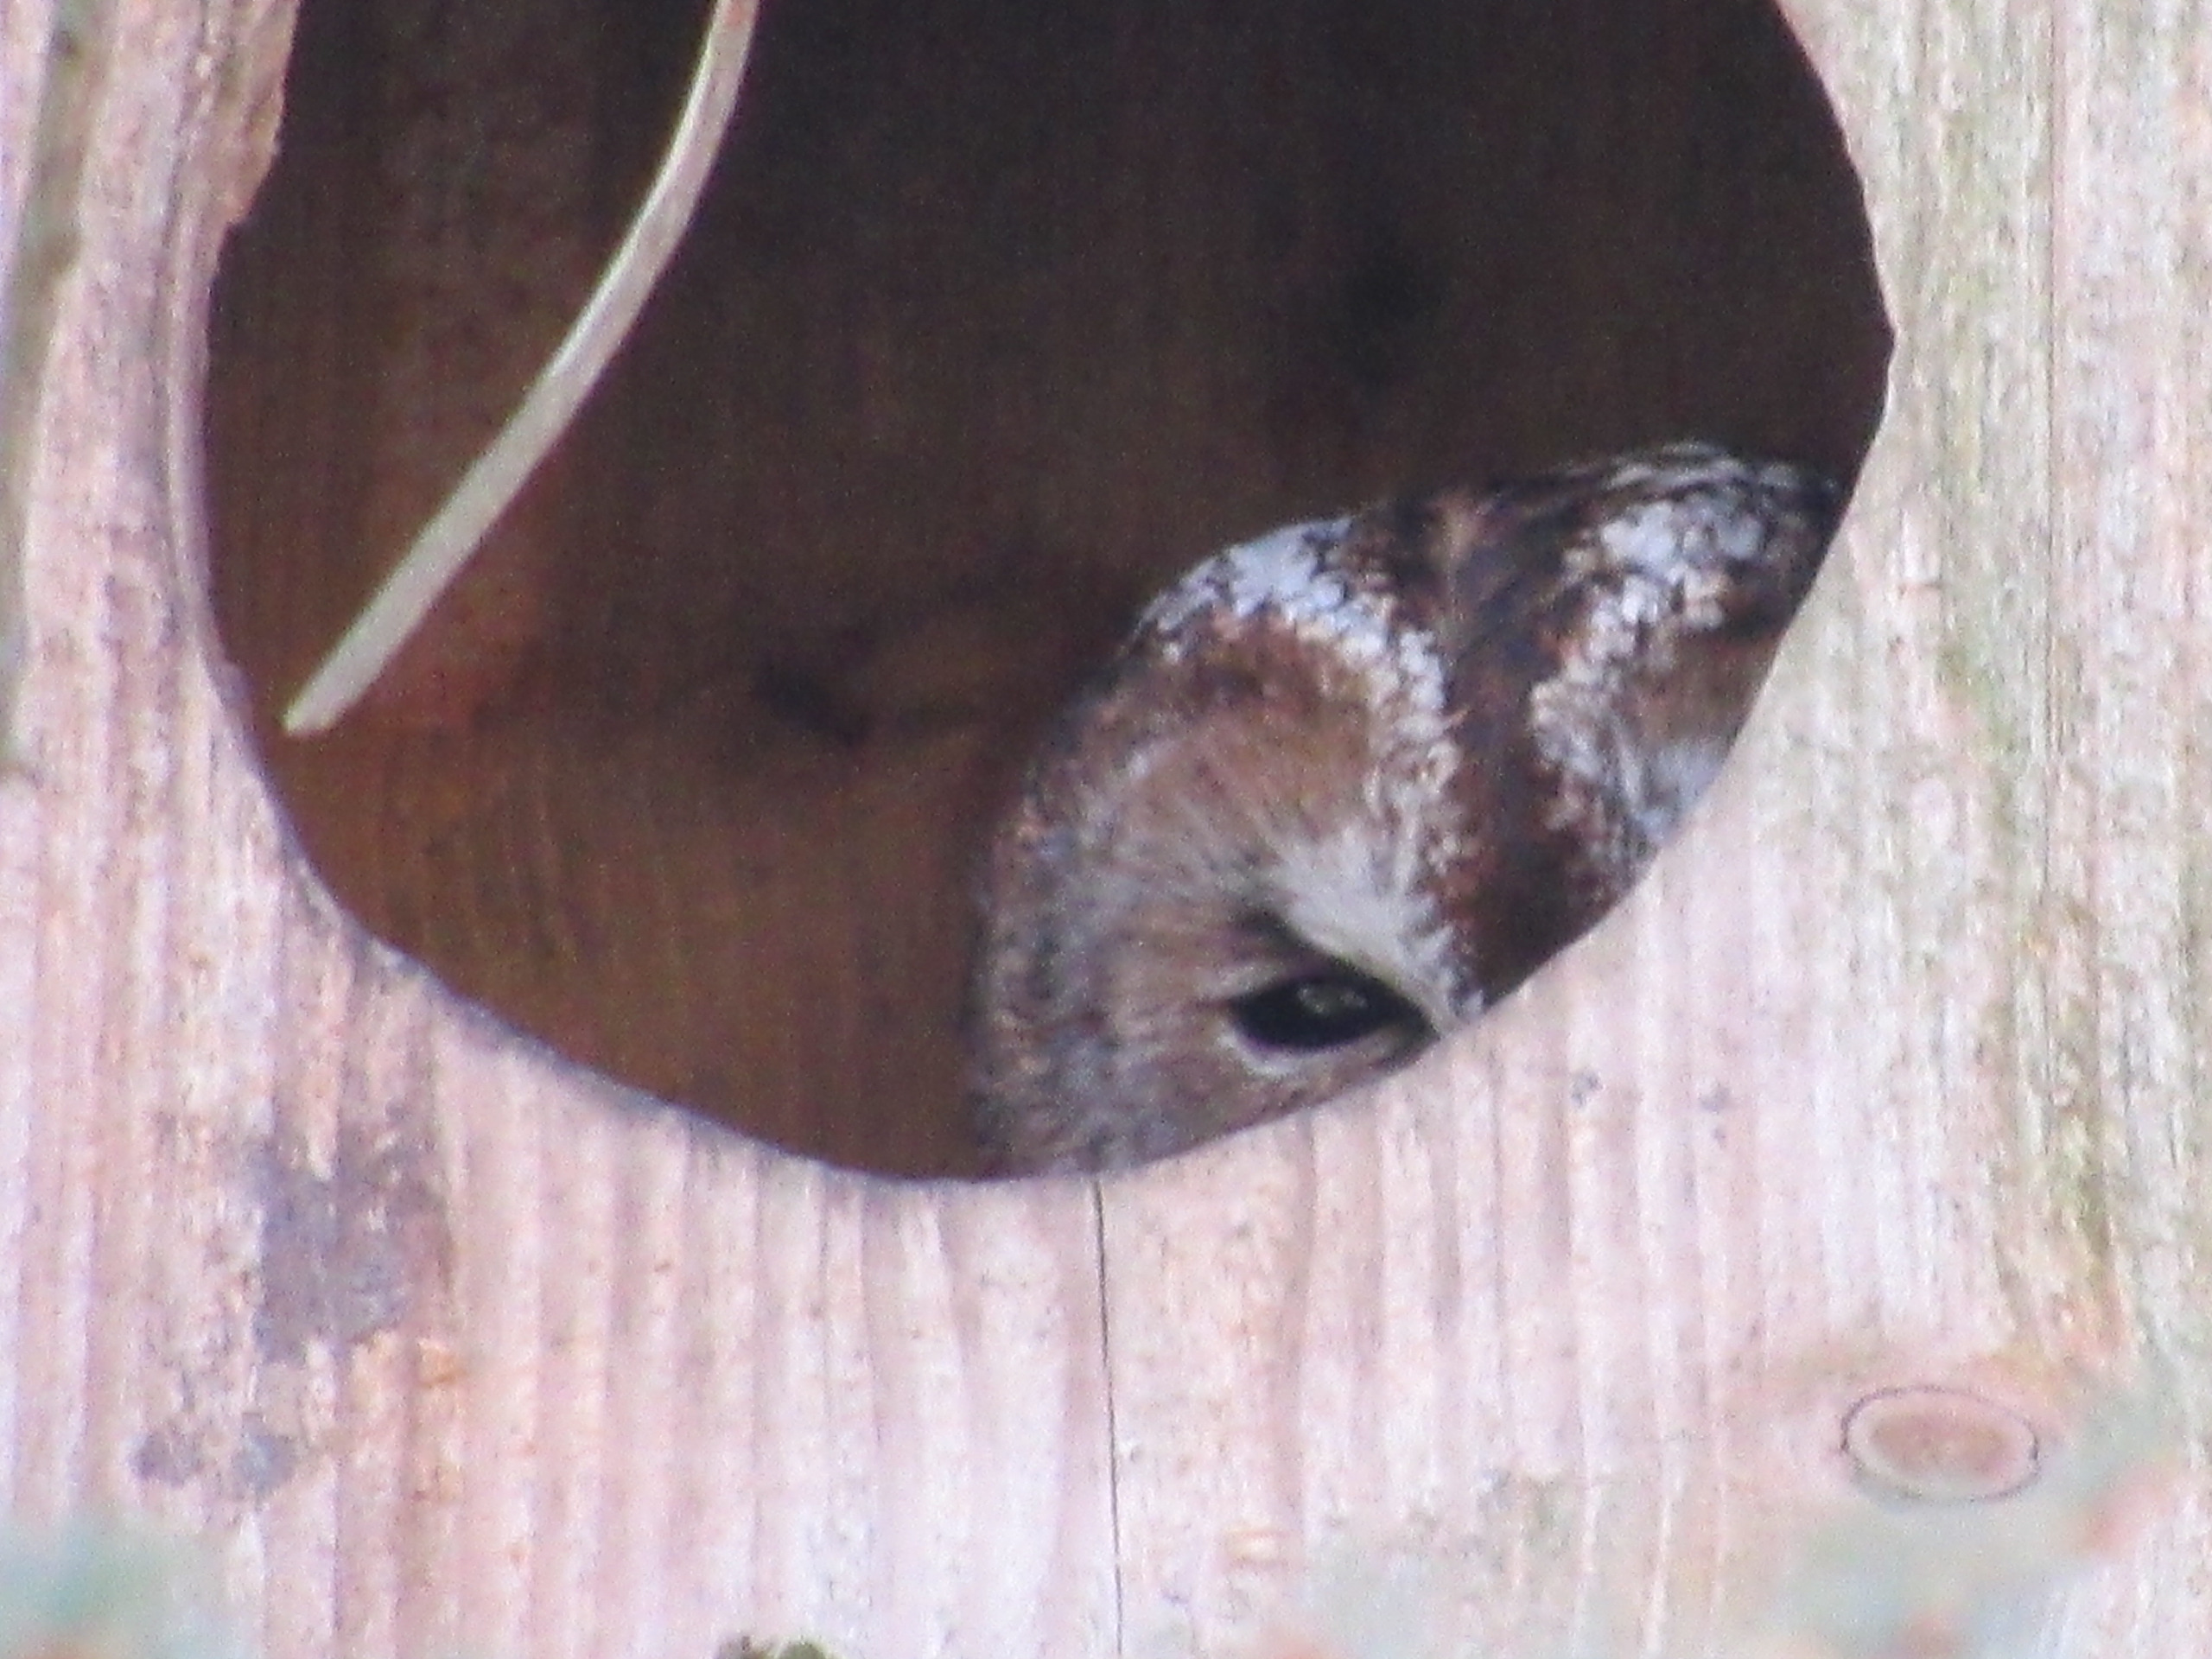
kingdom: Animalia
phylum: Chordata
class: Aves
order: Strigiformes
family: Strigidae
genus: Strix
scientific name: Strix aluco
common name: Natugle
